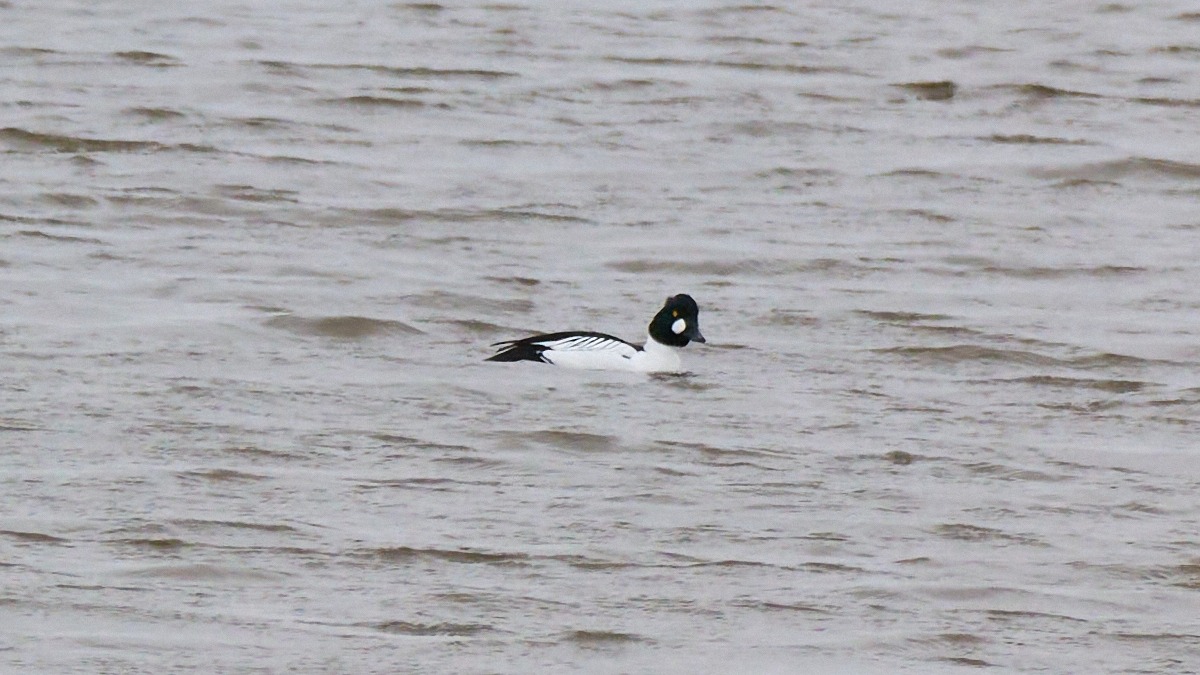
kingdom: Animalia
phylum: Chordata
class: Aves
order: Anseriformes
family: Anatidae
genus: Bucephala
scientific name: Bucephala clangula
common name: Hvinand
